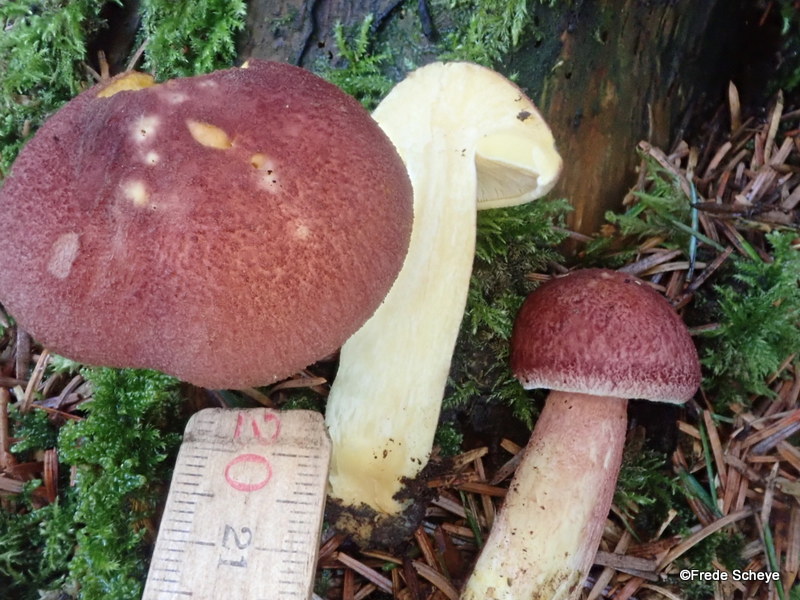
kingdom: Fungi
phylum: Basidiomycota
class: Agaricomycetes
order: Agaricales
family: Tricholomataceae
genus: Tricholomopsis
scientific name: Tricholomopsis rutilans
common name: purpur-væbnerhat
